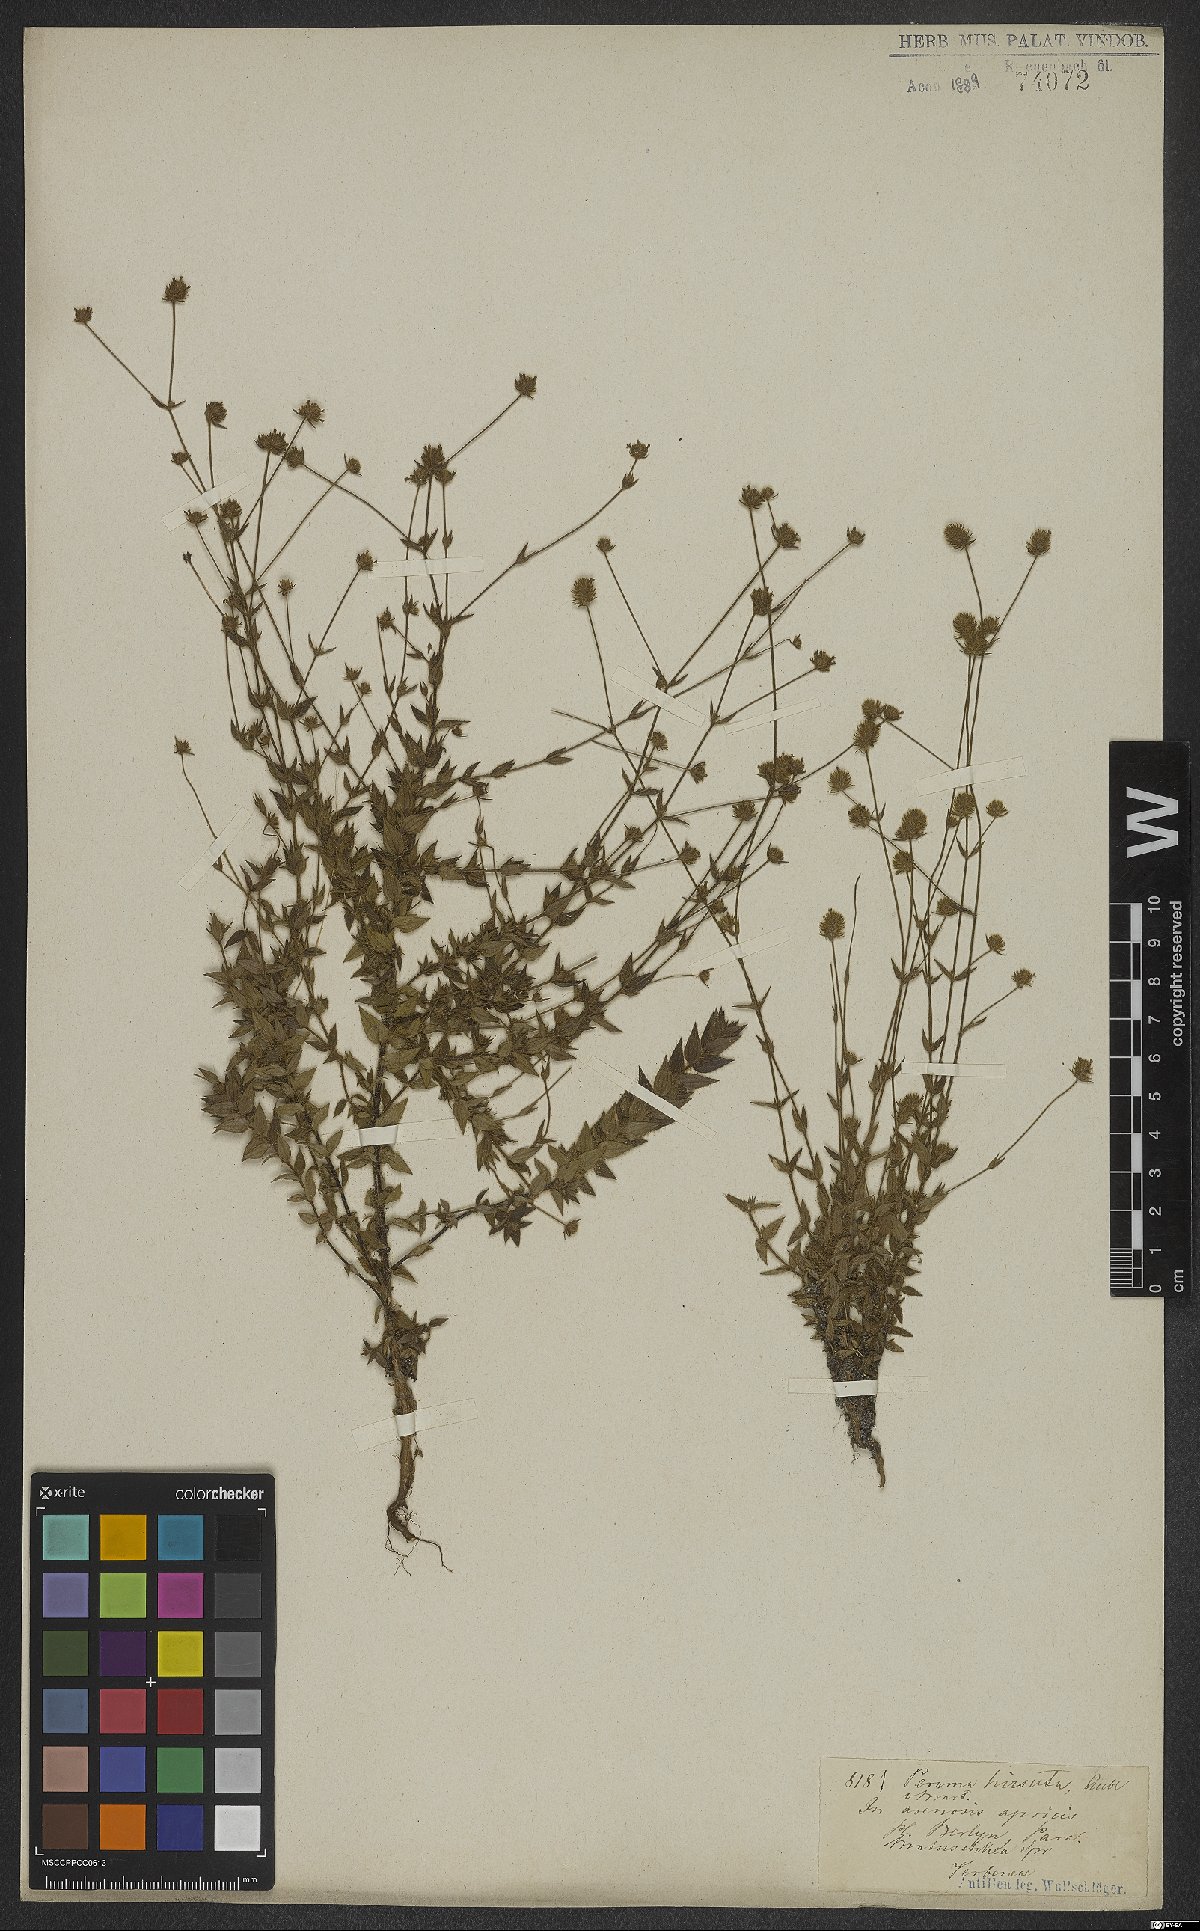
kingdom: Plantae
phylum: Tracheophyta
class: Magnoliopsida
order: Gentianales
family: Rubiaceae
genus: Perama
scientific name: Perama hirsuta
